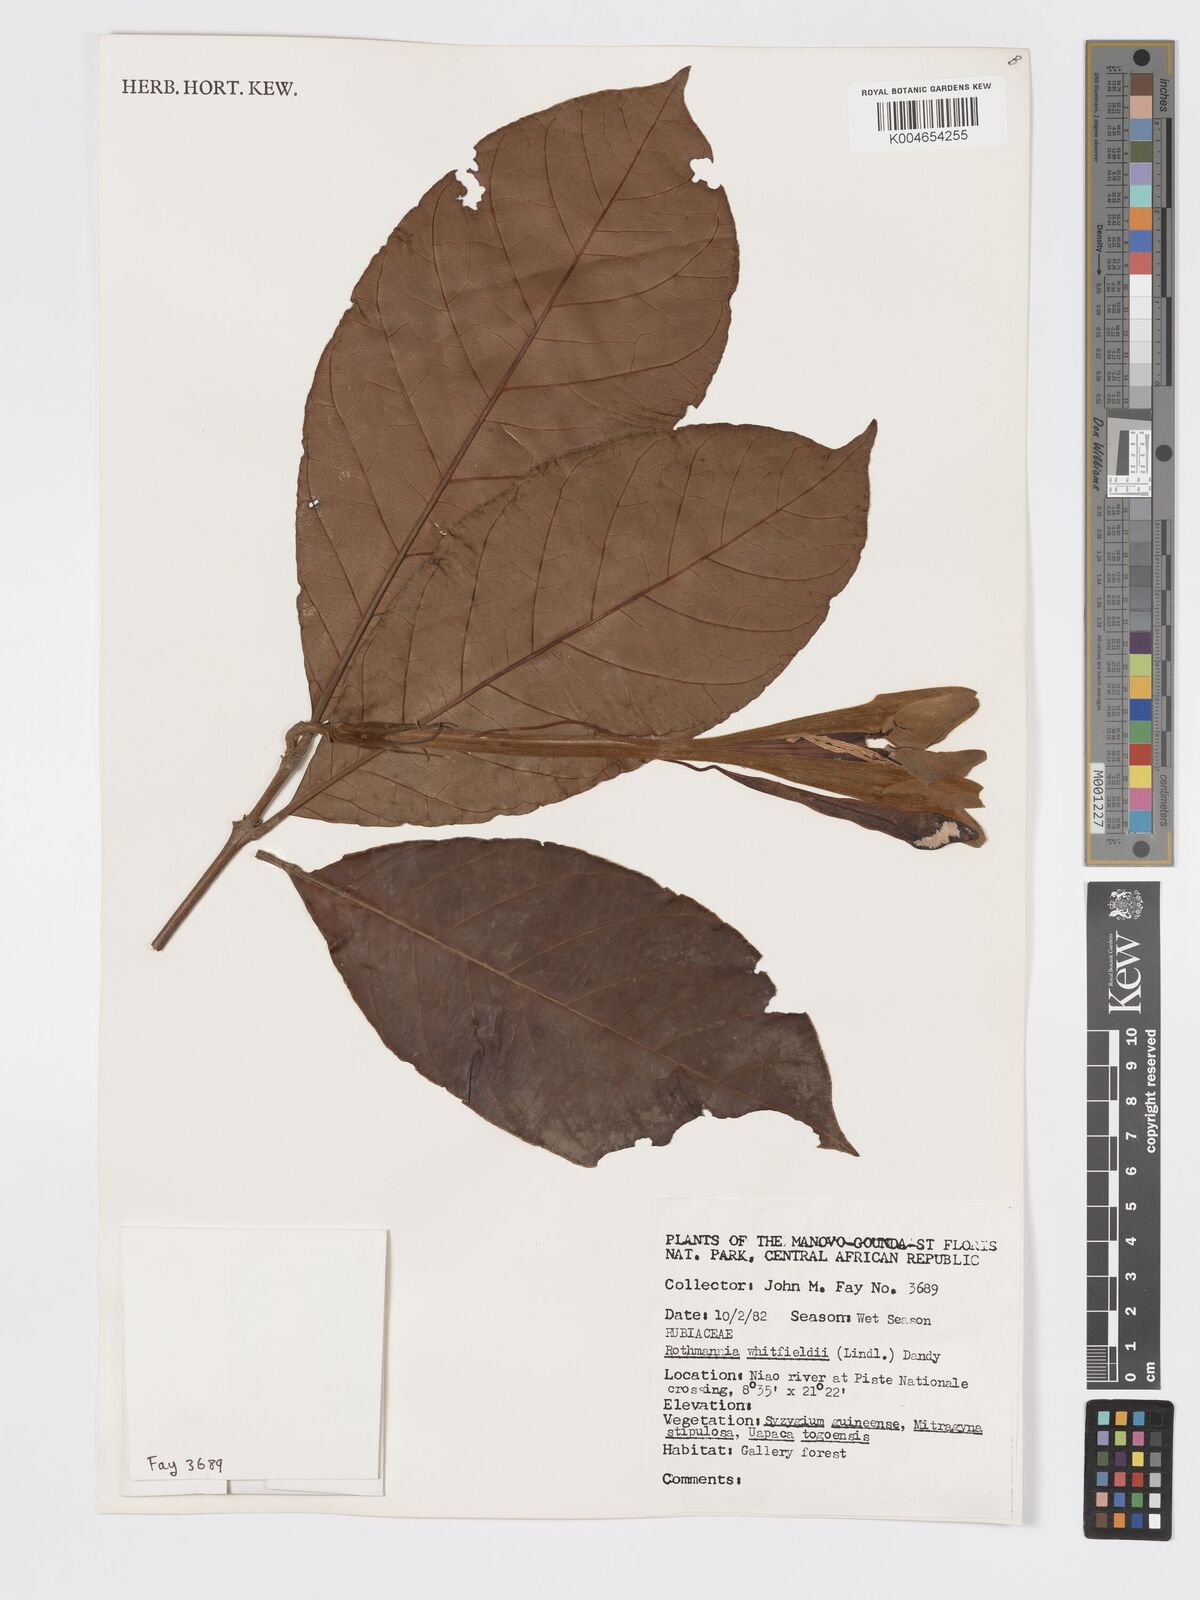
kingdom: Plantae
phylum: Tracheophyta
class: Magnoliopsida
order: Gentianales
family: Rubiaceae
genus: Rothmannia
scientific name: Rothmannia whitfieldii
